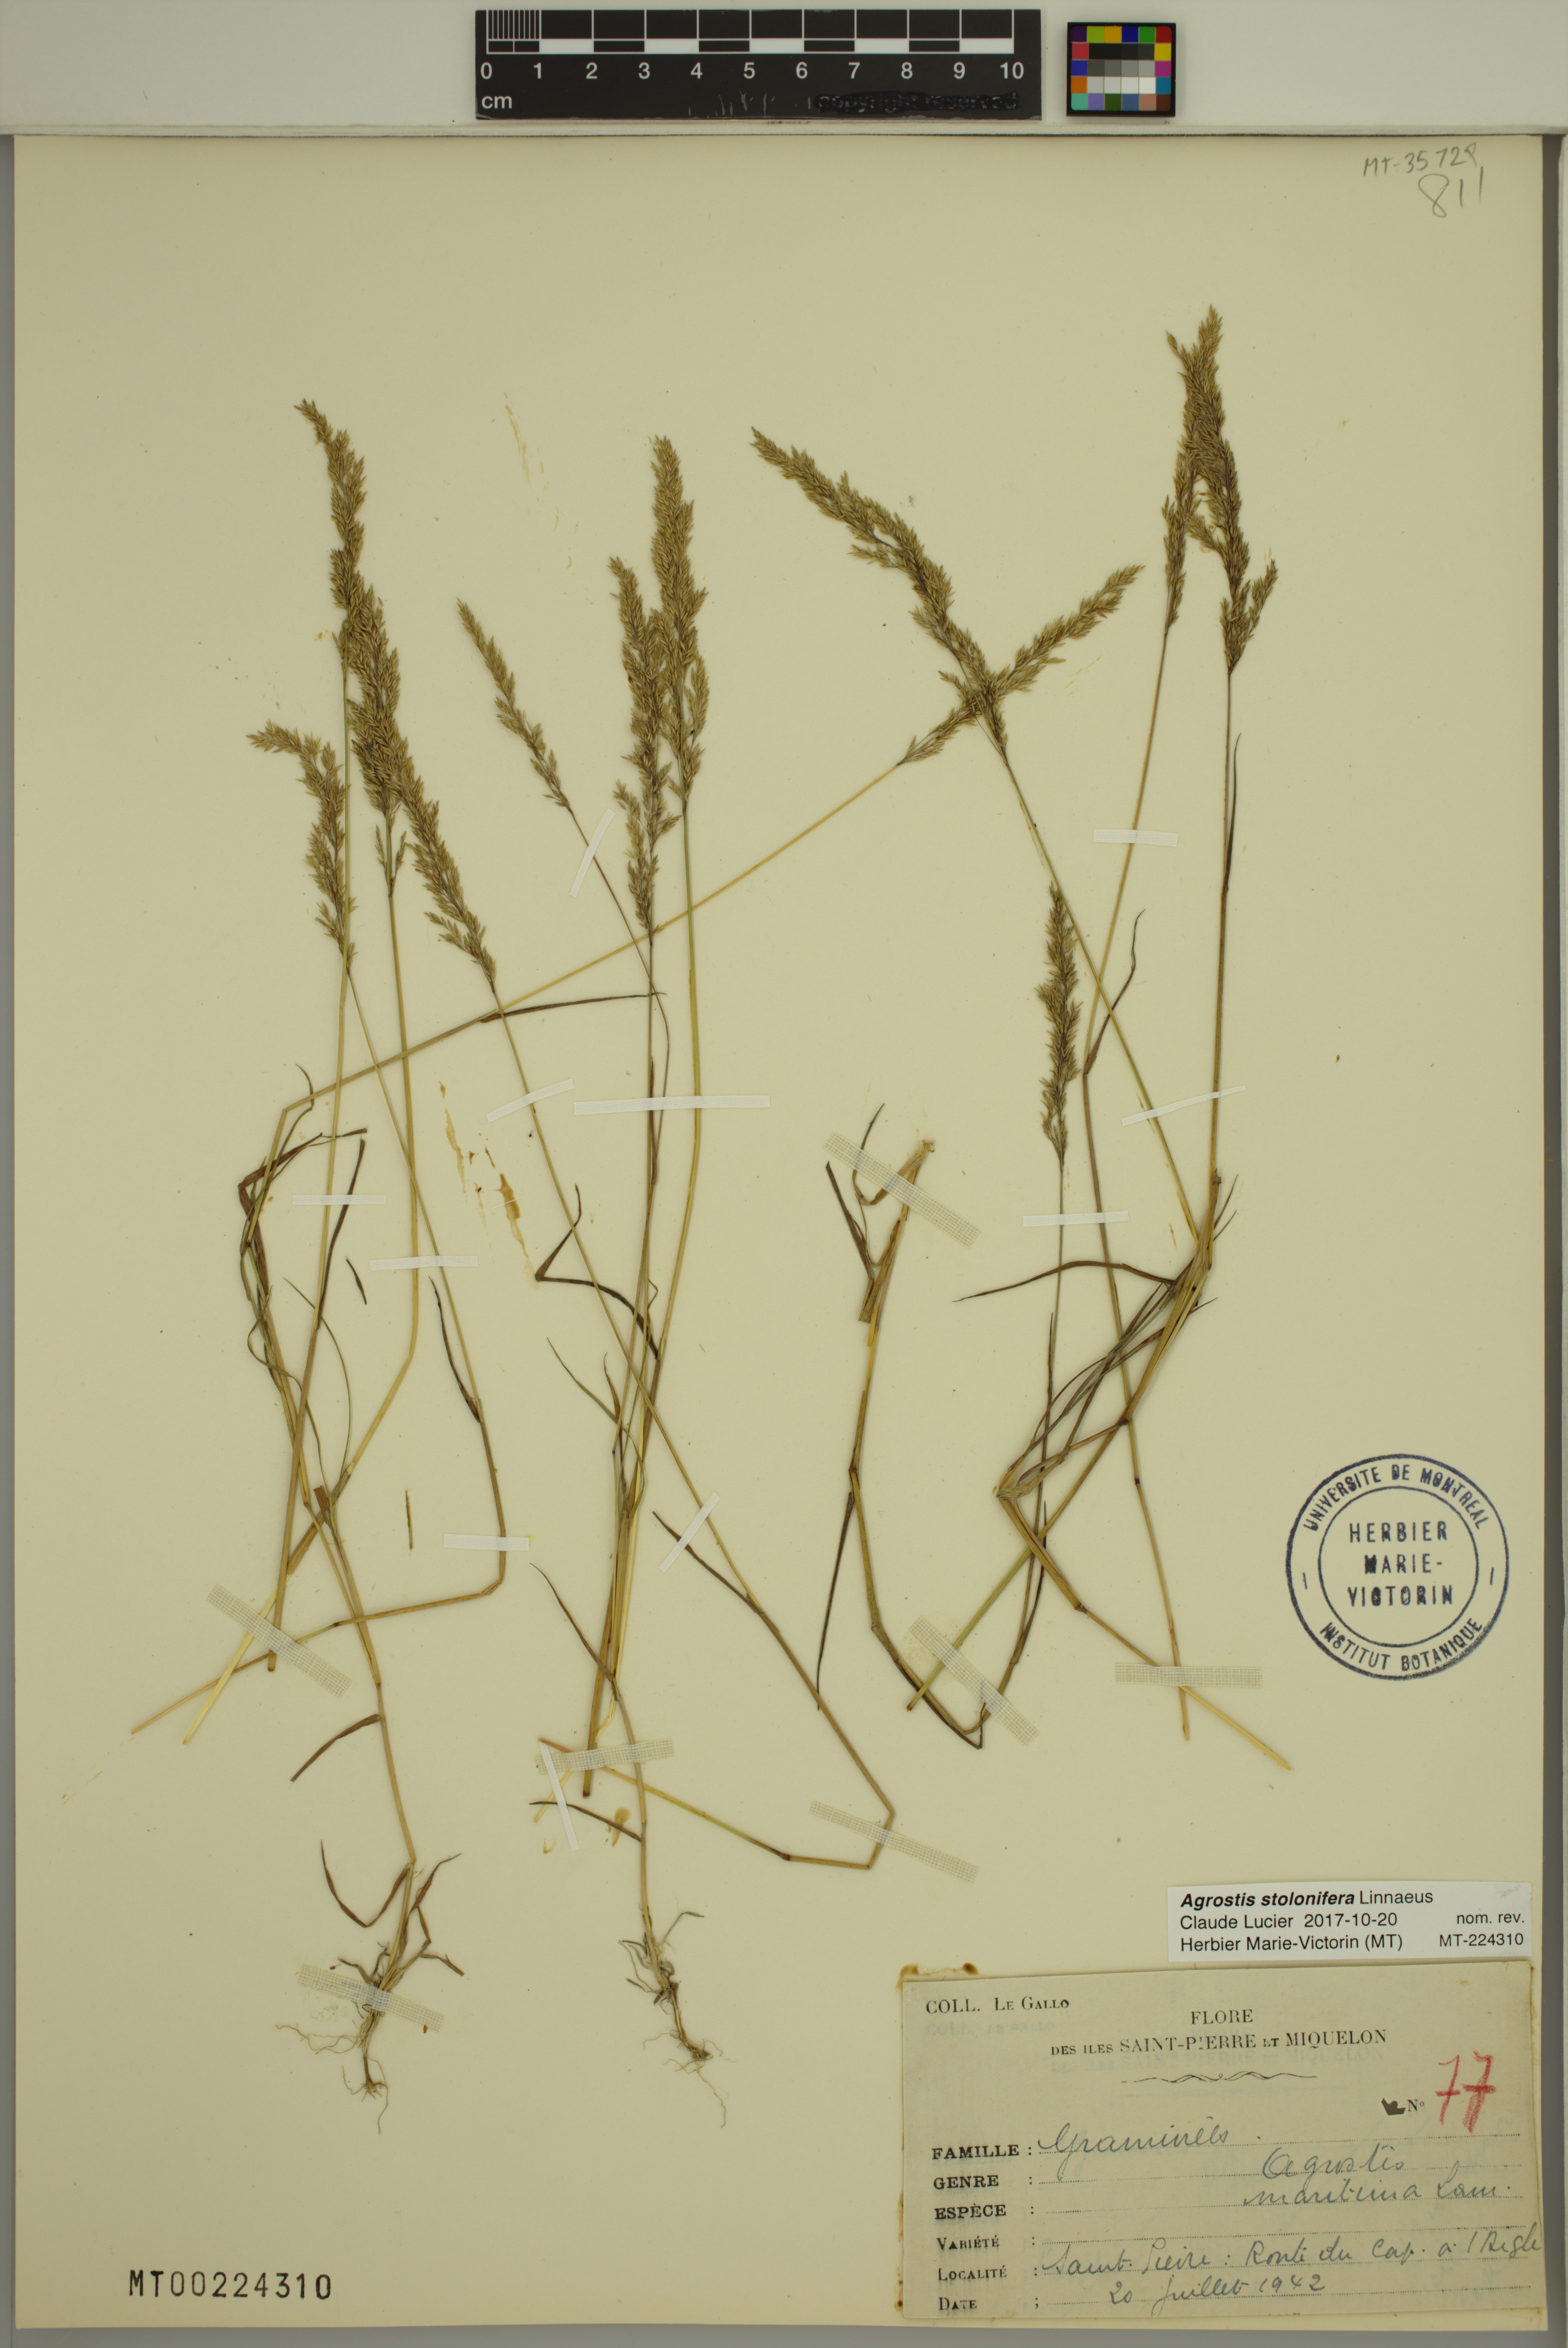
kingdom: Plantae
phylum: Tracheophyta
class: Liliopsida
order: Poales
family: Poaceae
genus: Agrostis
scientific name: Agrostis stolonifera
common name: Creeping bentgrass
